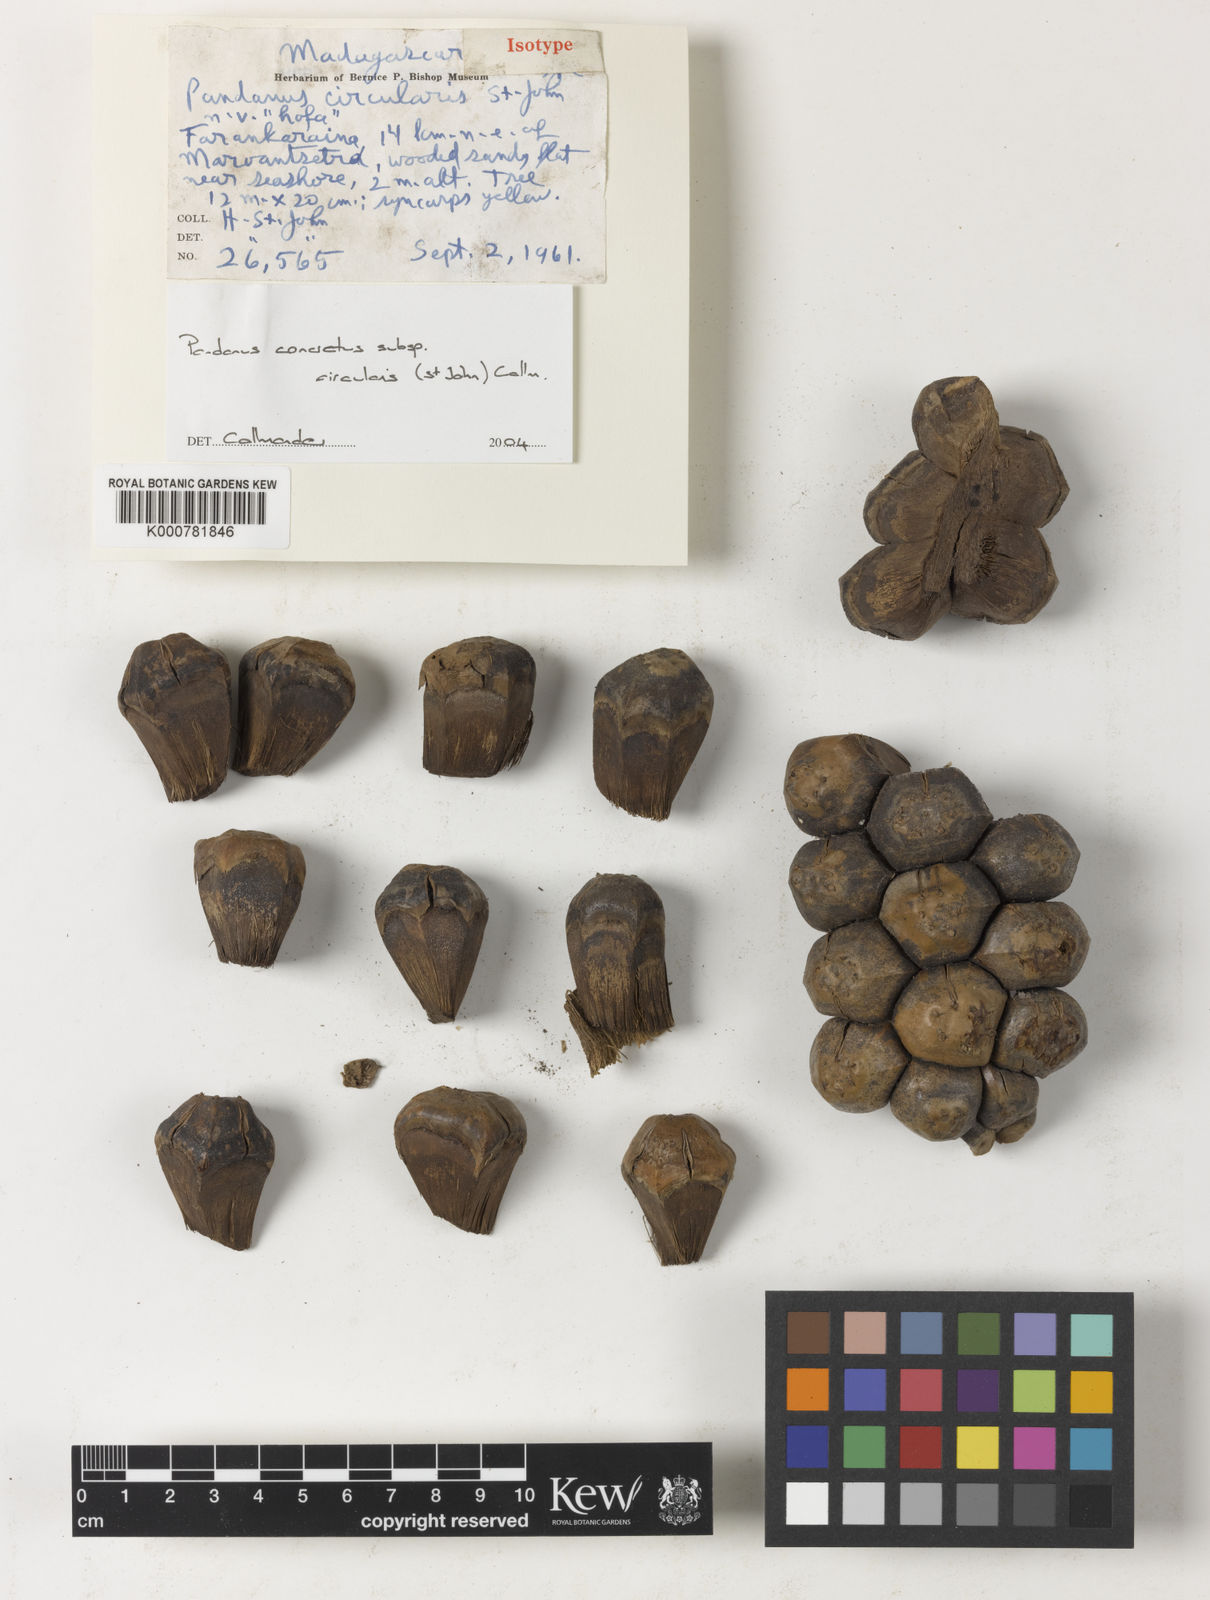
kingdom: Plantae
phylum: Tracheophyta
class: Liliopsida
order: Pandanales
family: Pandanaceae
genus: Pandanus
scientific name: Pandanus concretus
